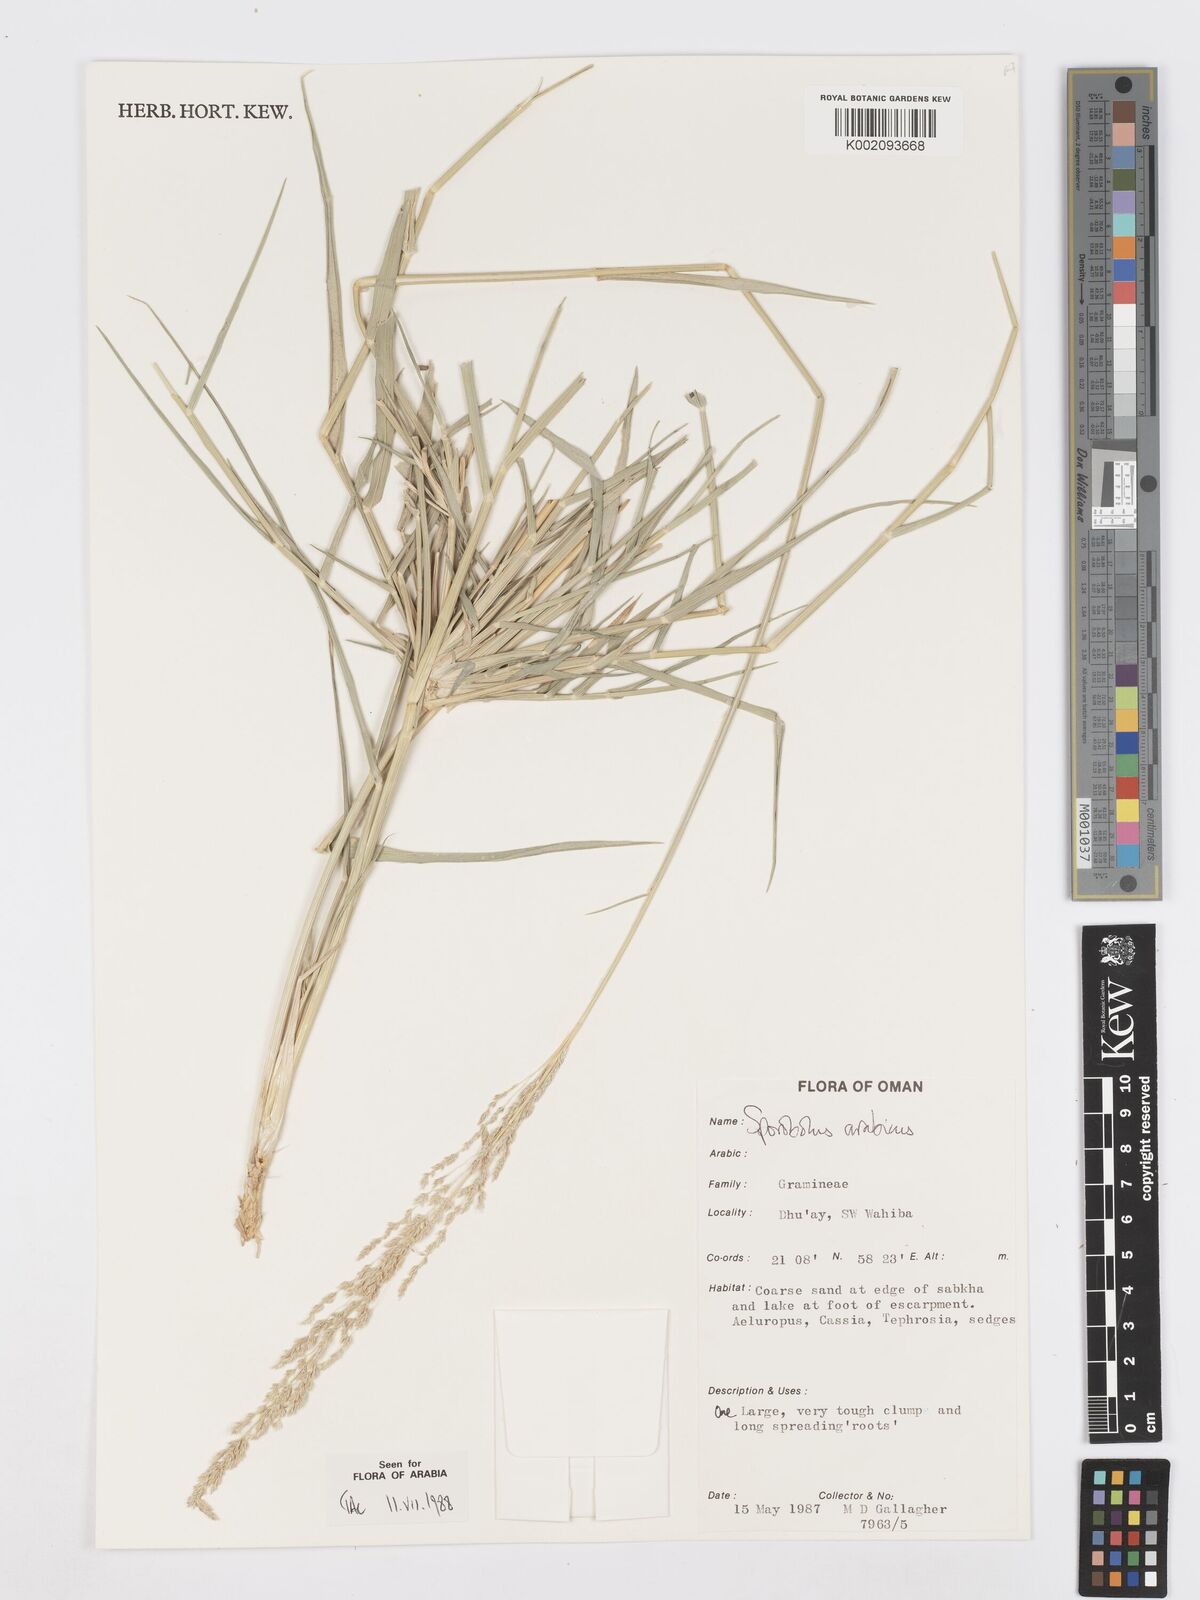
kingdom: Plantae
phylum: Tracheophyta
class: Liliopsida
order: Poales
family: Poaceae
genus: Sporobolus
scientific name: Sporobolus ioclados
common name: Pan dropseed
